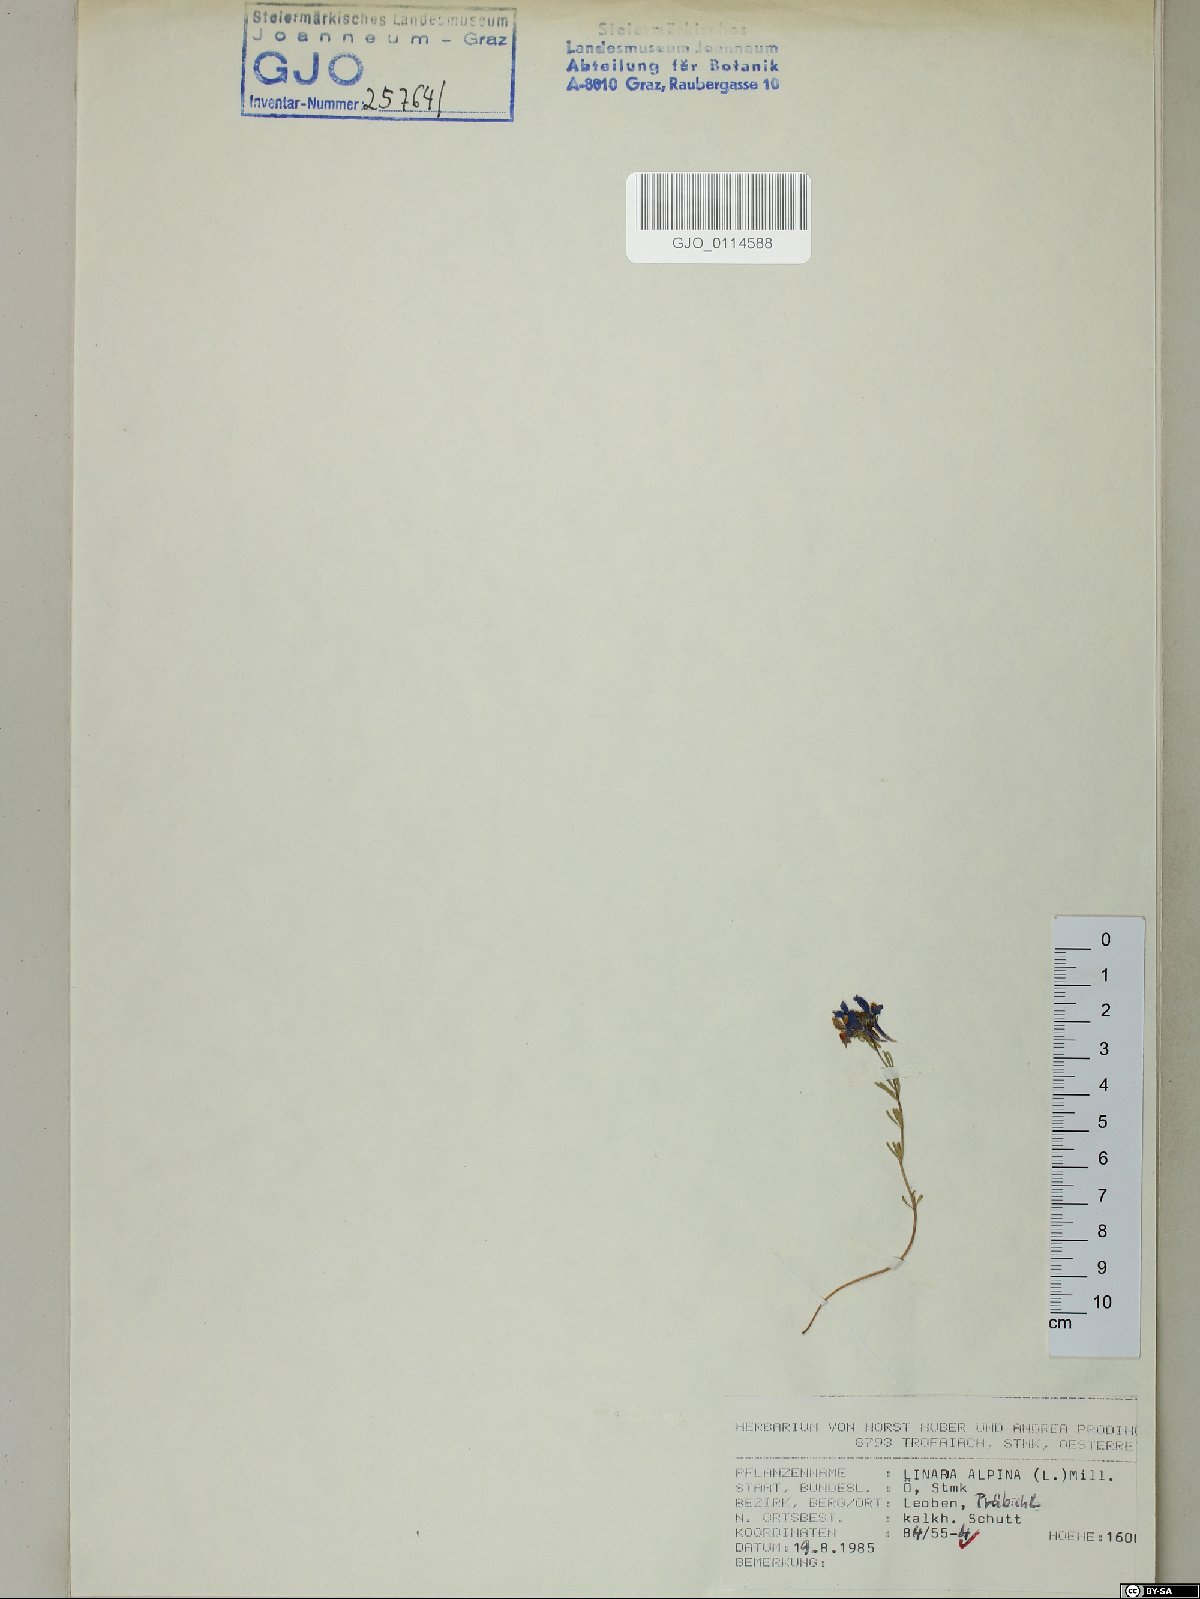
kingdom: Plantae
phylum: Tracheophyta
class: Magnoliopsida
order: Lamiales
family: Plantaginaceae
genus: Linaria
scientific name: Linaria alpina
